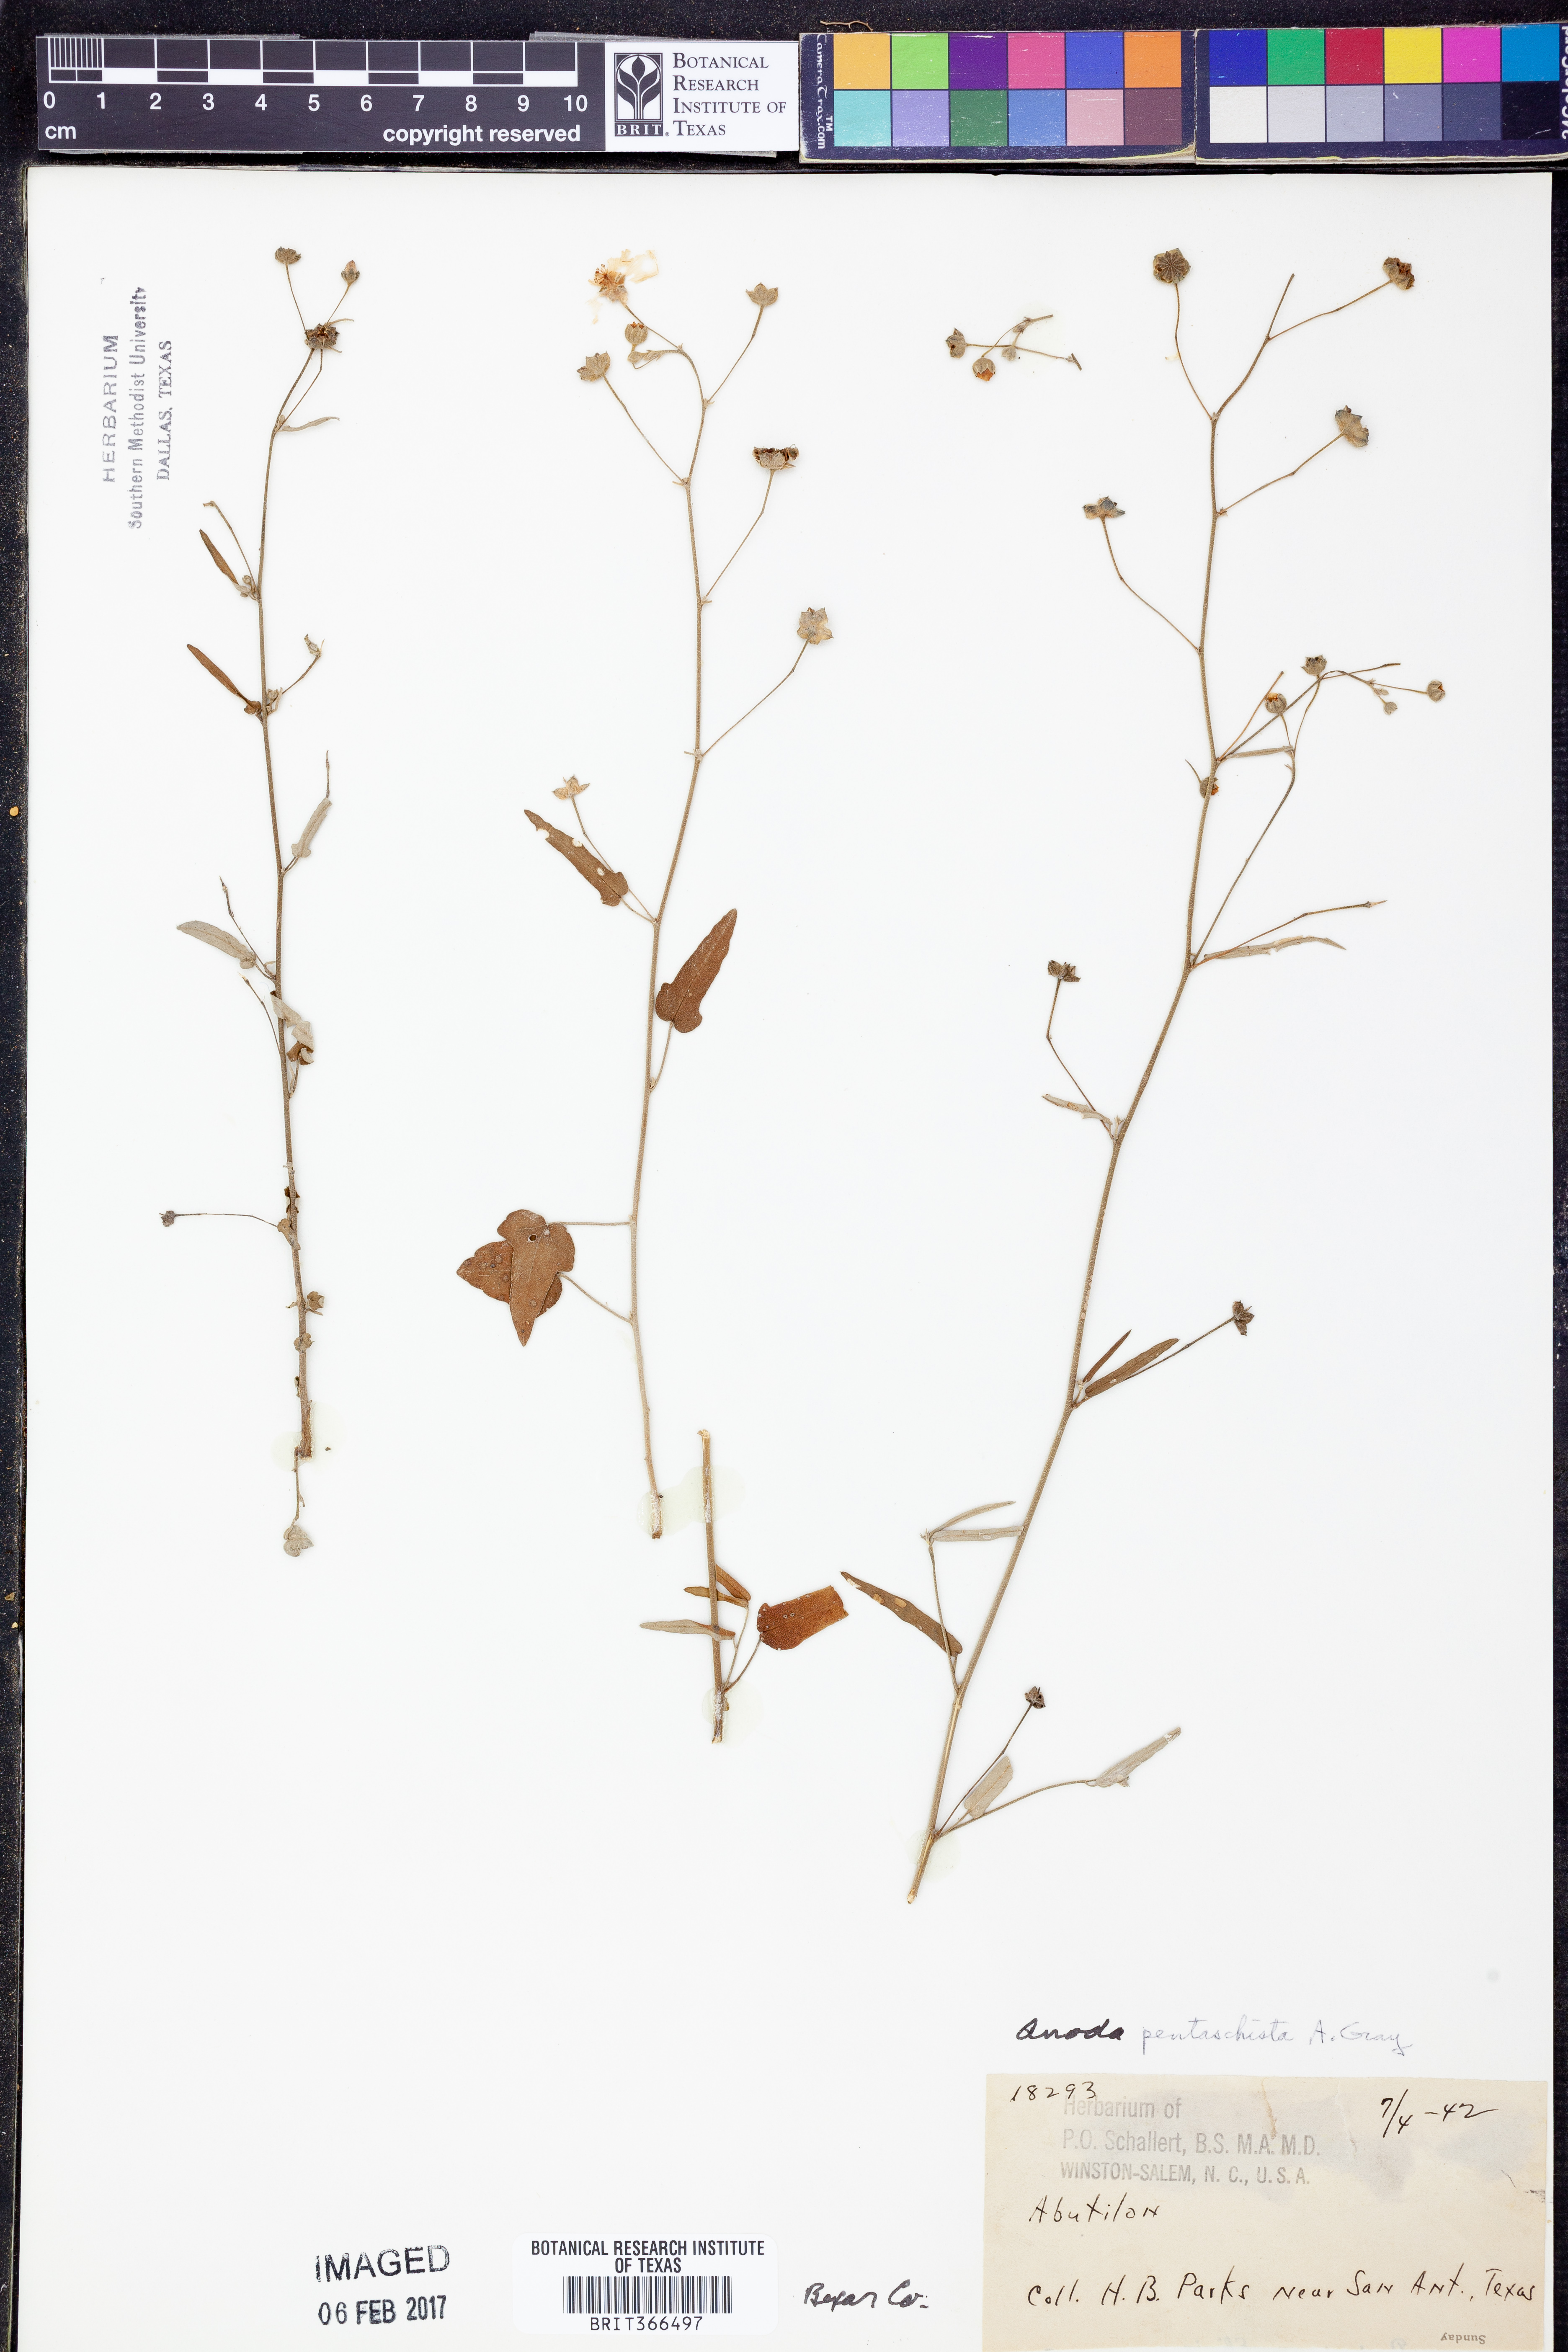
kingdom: Plantae
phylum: Tracheophyta
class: Magnoliopsida
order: Malvales
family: Malvaceae
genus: Anoda
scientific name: Anoda pentaschista
